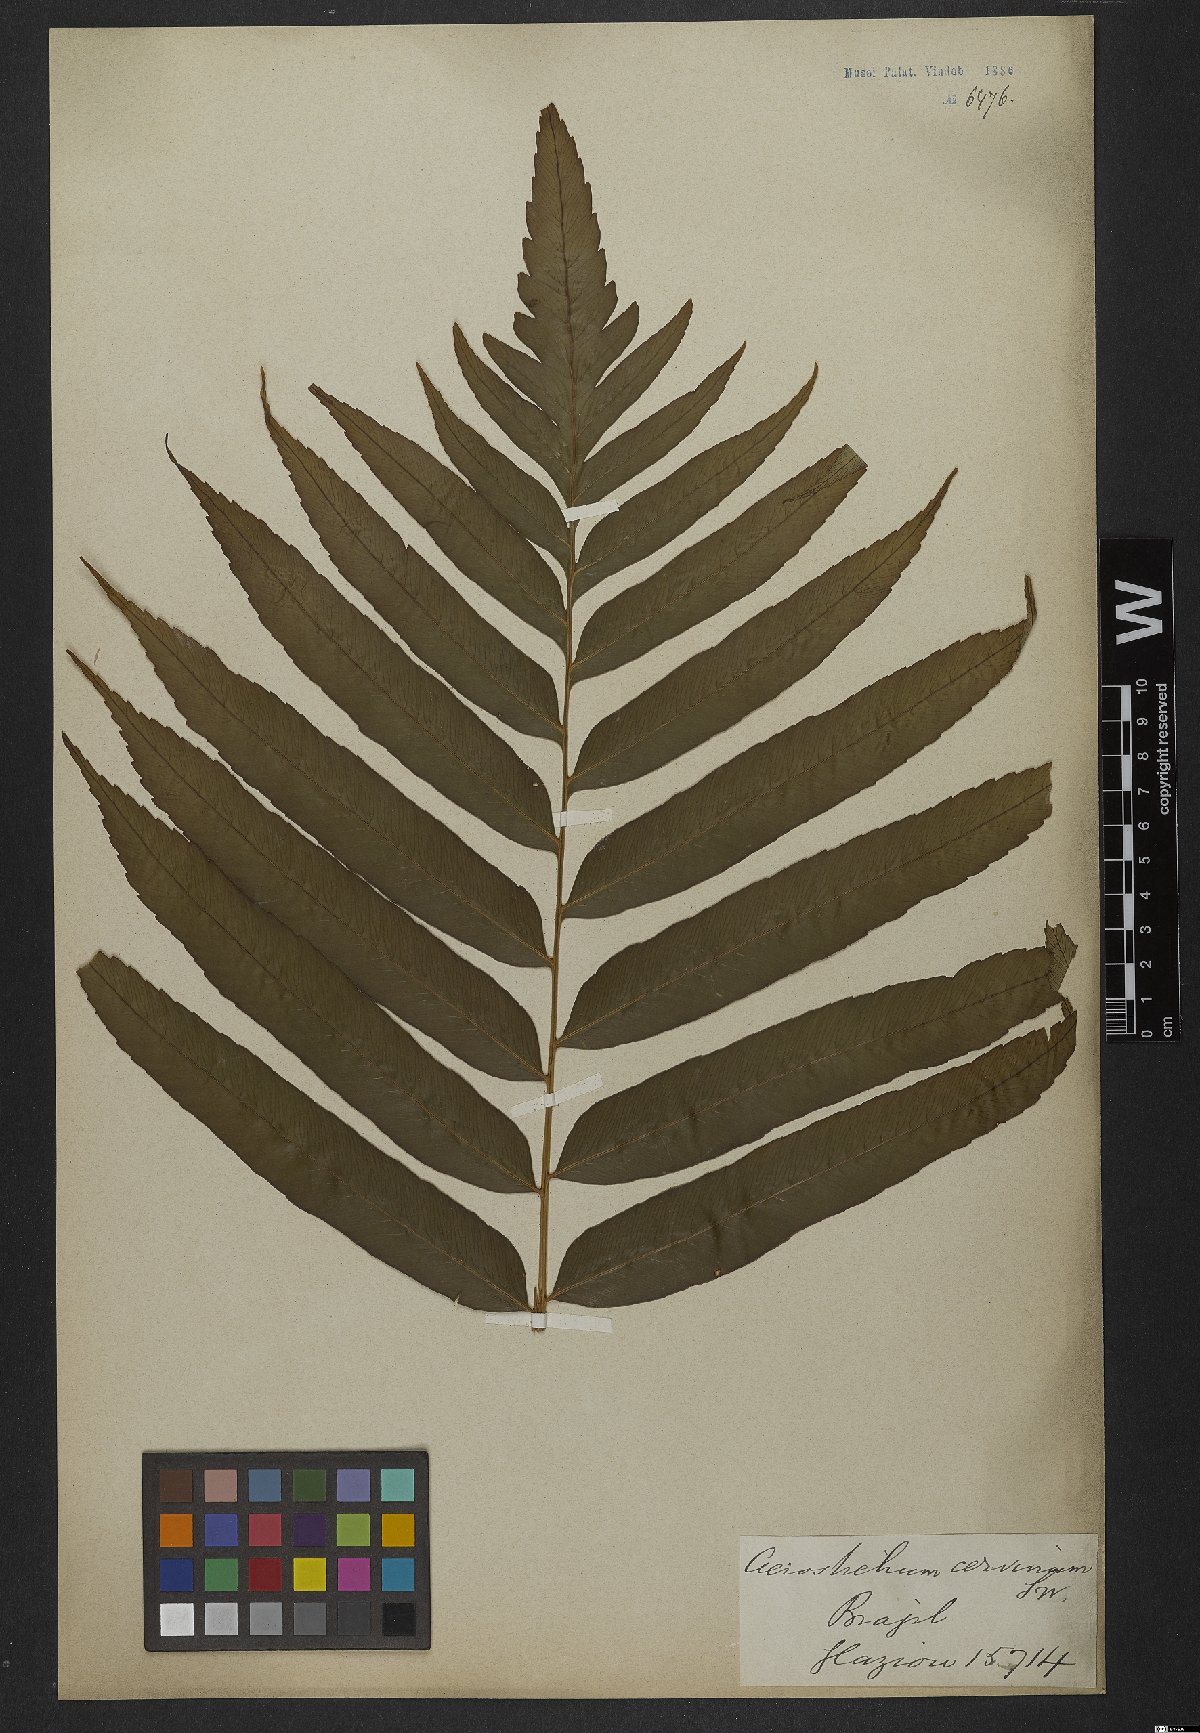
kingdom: Plantae
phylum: Tracheophyta
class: Polypodiopsida
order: Polypodiales
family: Dryopteridaceae
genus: Olfersia
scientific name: Olfersia cervina
